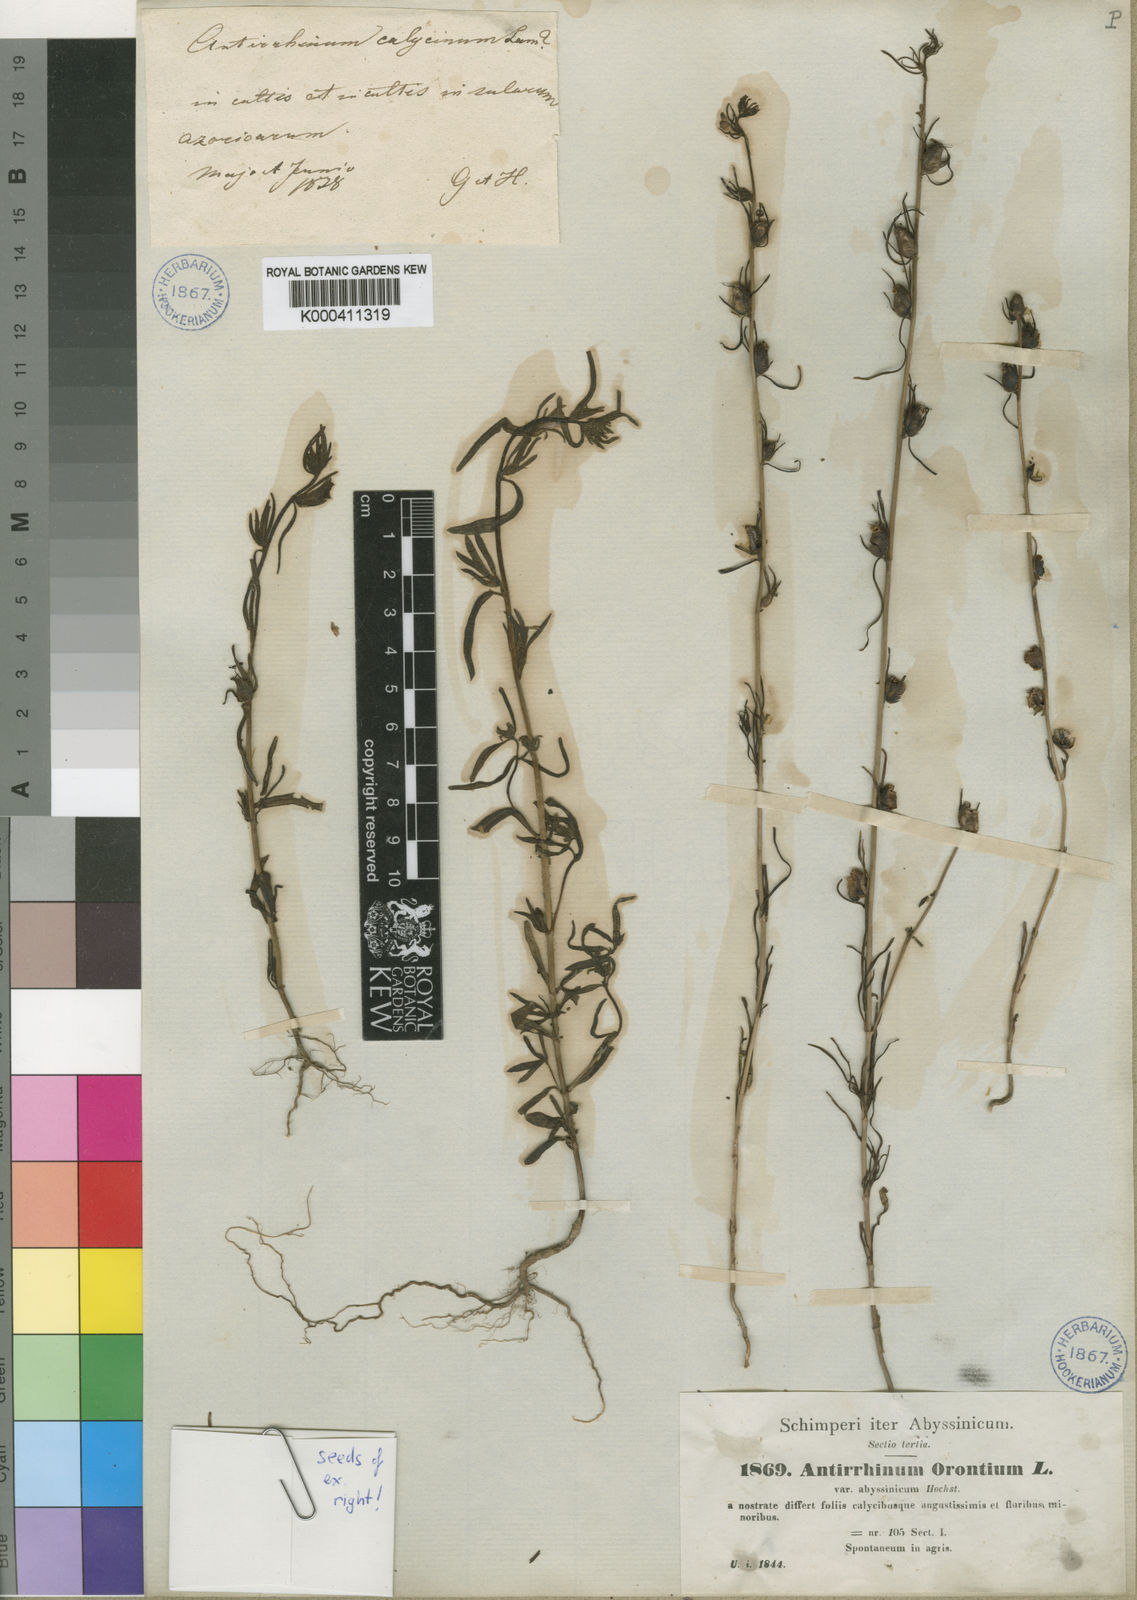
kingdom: Plantae
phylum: Tracheophyta
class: Magnoliopsida
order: Lamiales
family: Plantaginaceae
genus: Misopates
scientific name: Misopates orontium
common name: Weasel's-snout
